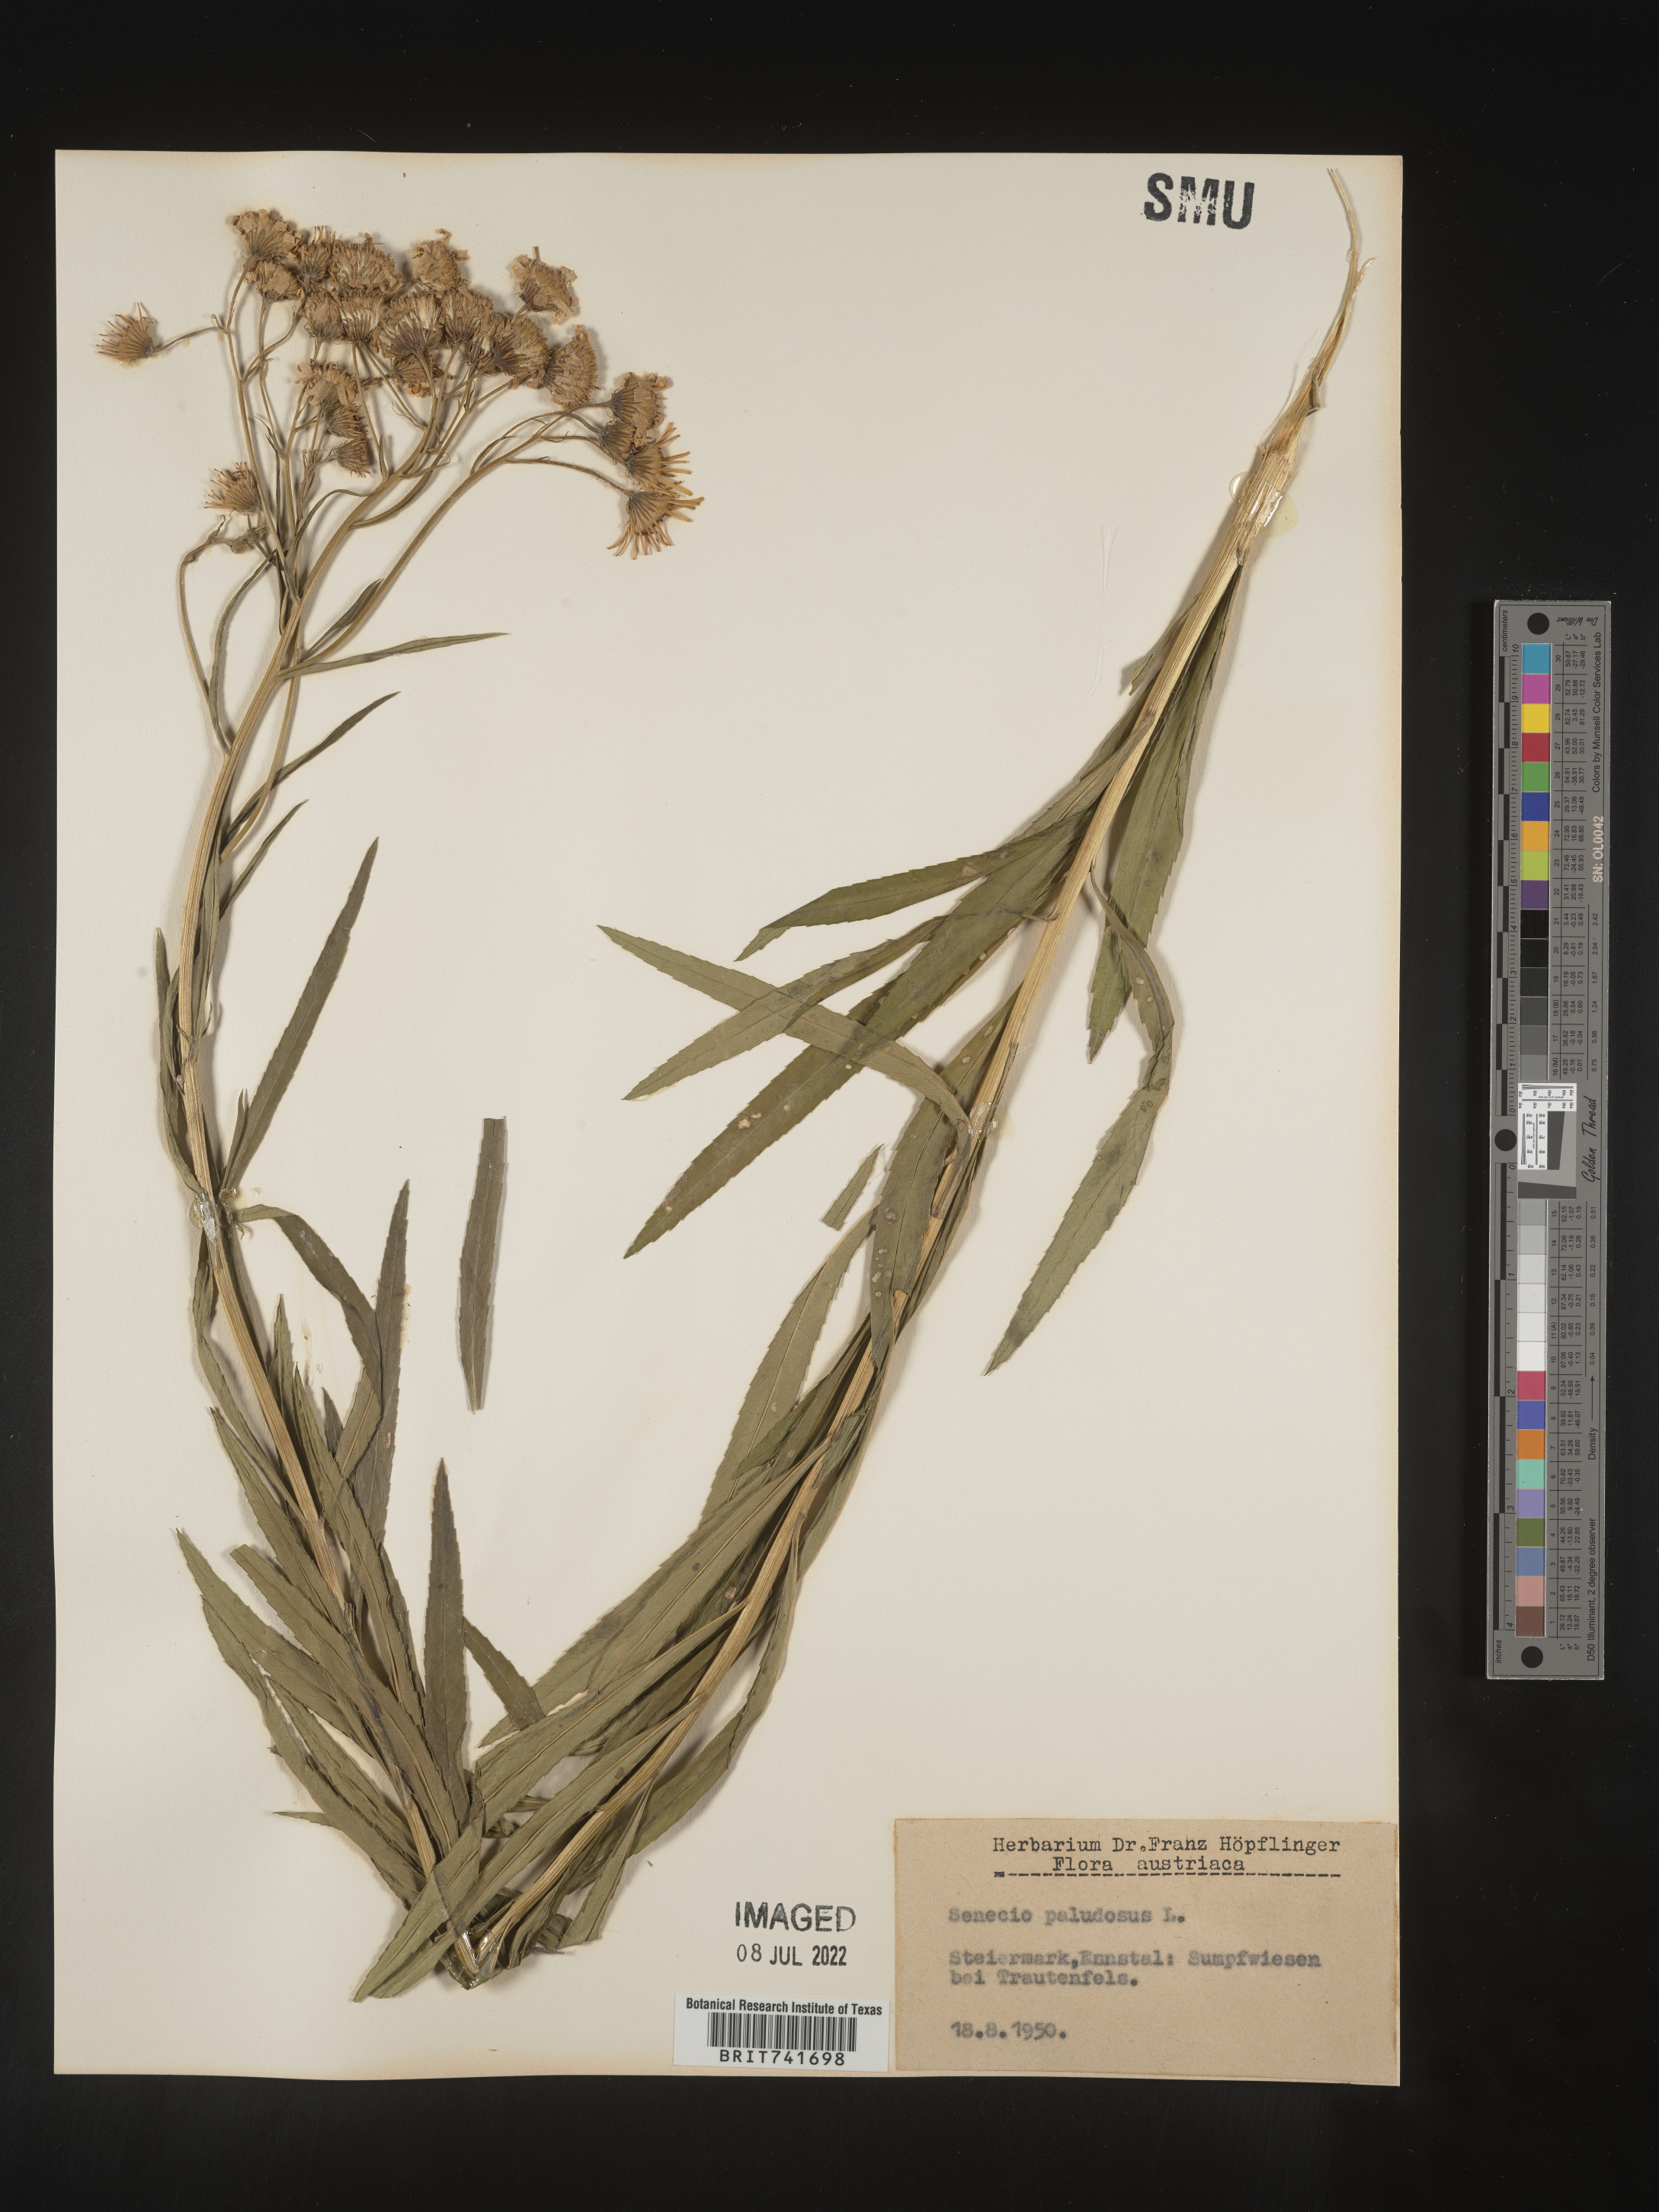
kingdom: Plantae
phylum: Tracheophyta
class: Magnoliopsida
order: Asterales
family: Asteraceae
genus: Senecio
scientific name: Senecio
